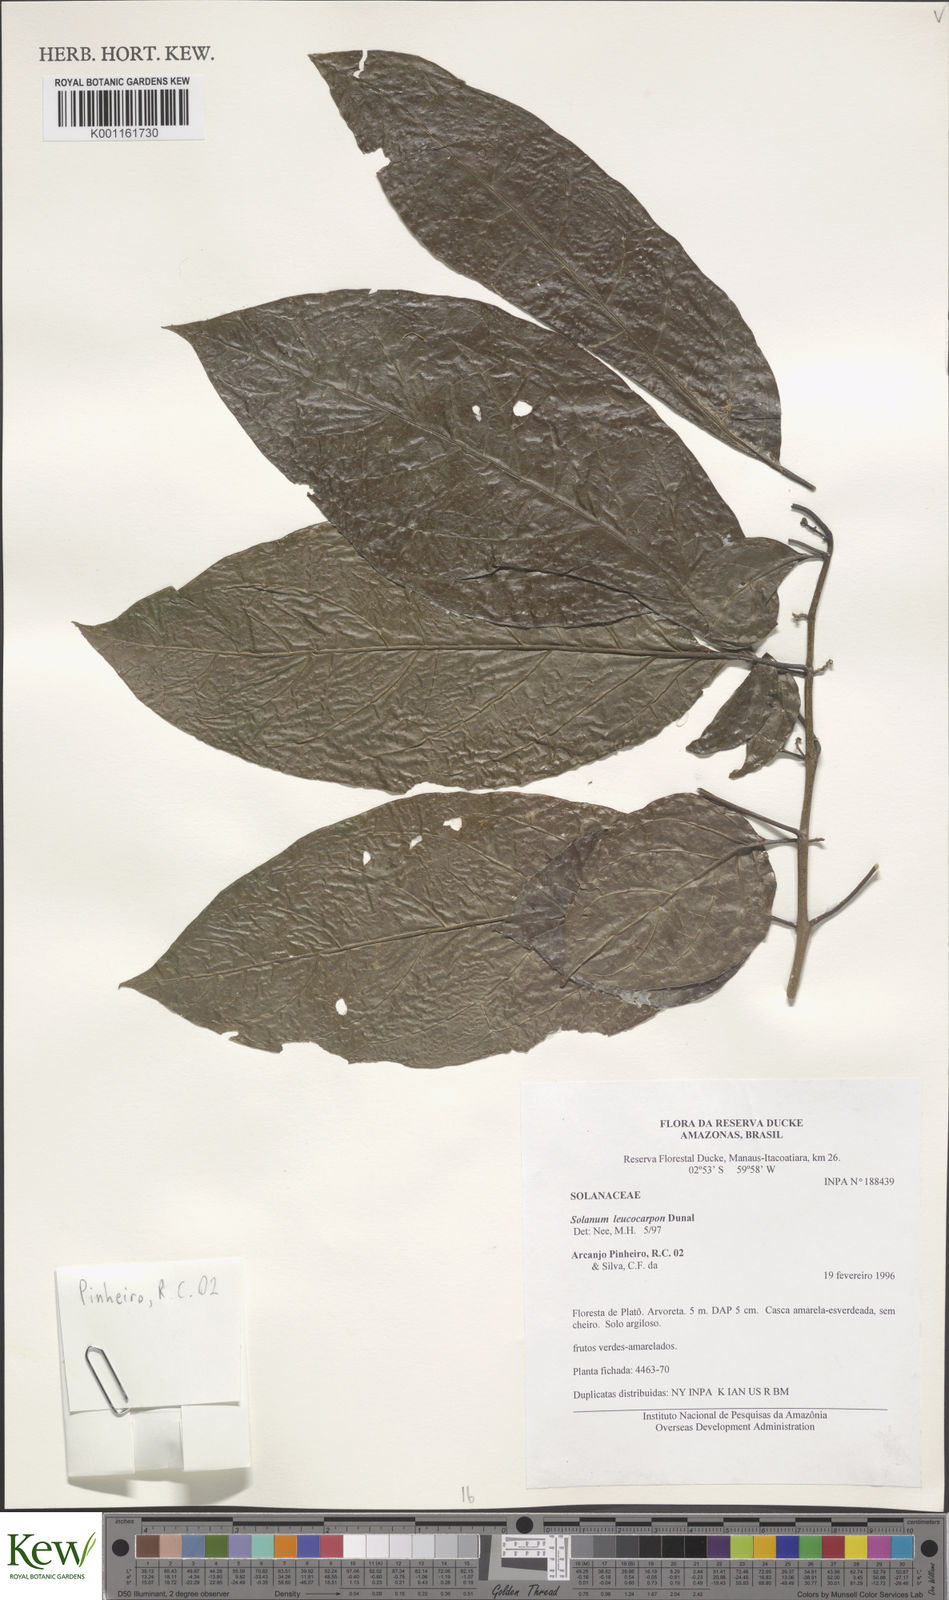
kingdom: Plantae
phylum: Tracheophyta
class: Magnoliopsida
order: Solanales
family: Solanaceae
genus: Solanum
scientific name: Solanum leucocarpon
